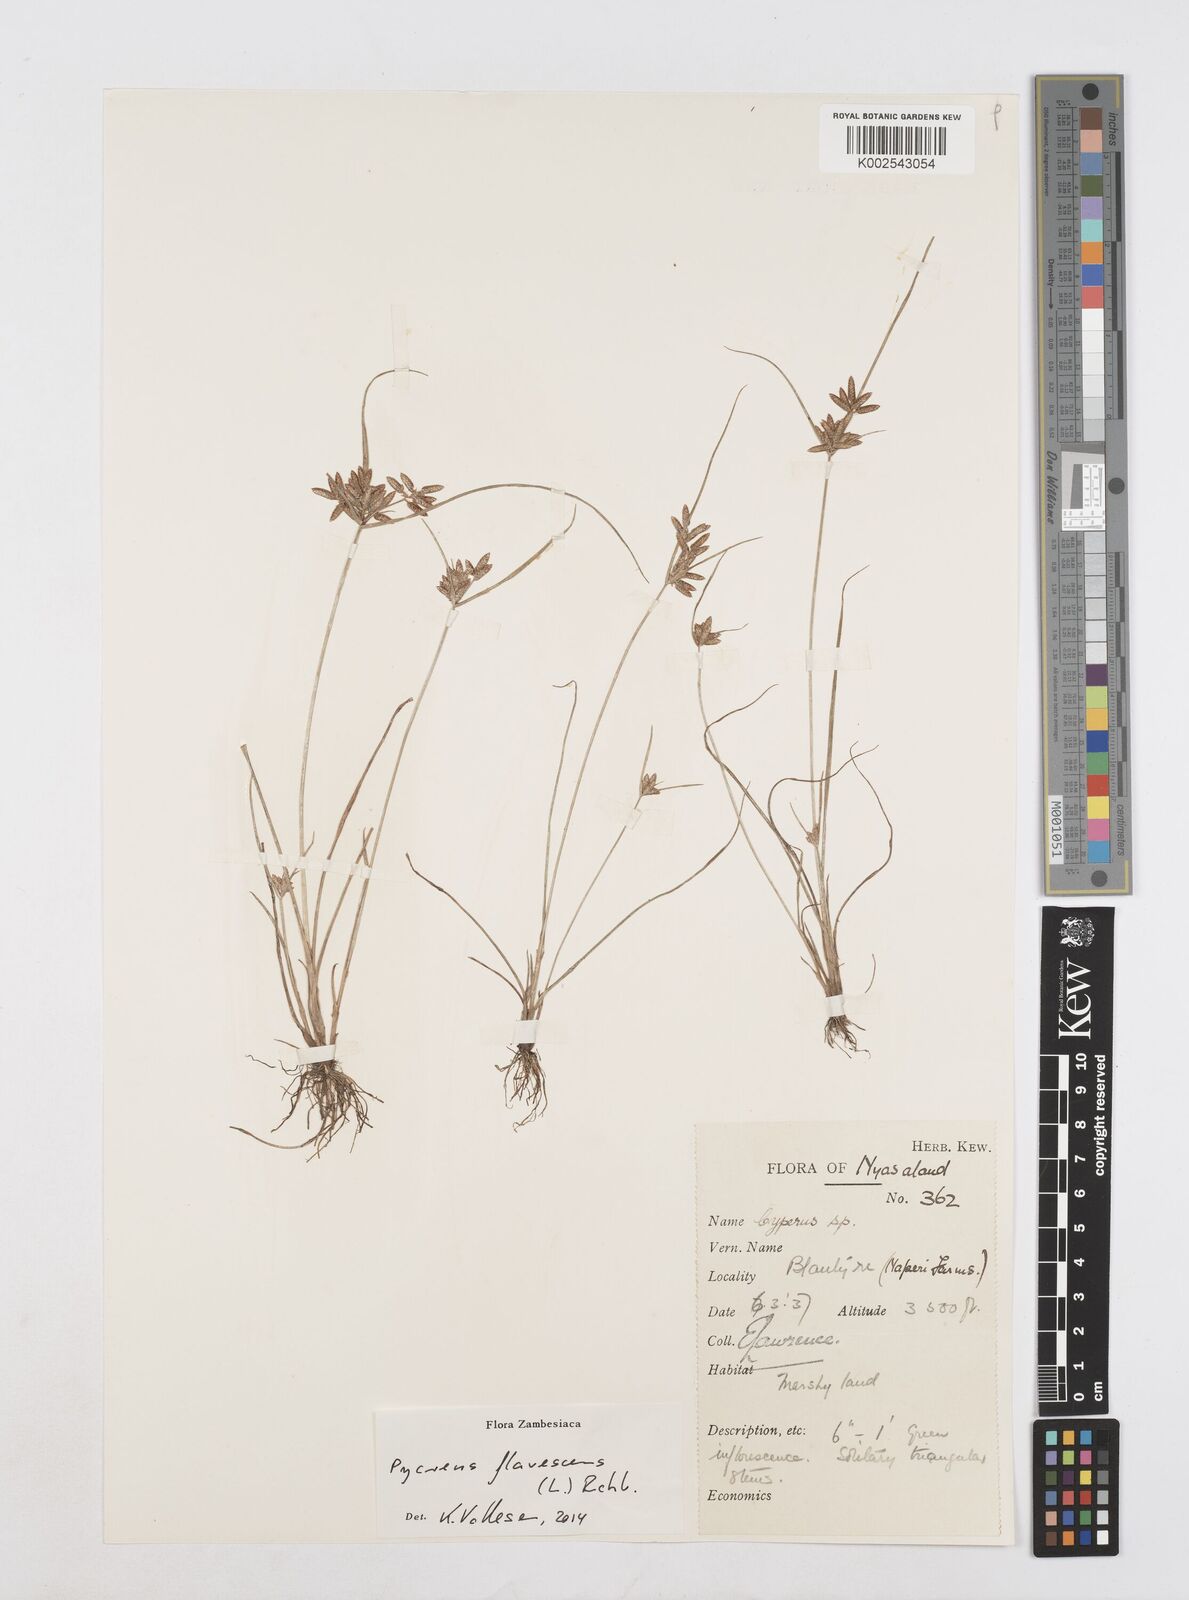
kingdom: Plantae
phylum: Tracheophyta
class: Liliopsida
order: Poales
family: Cyperaceae
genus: Cyperus
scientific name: Cyperus flavescens
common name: Yellow galingale
